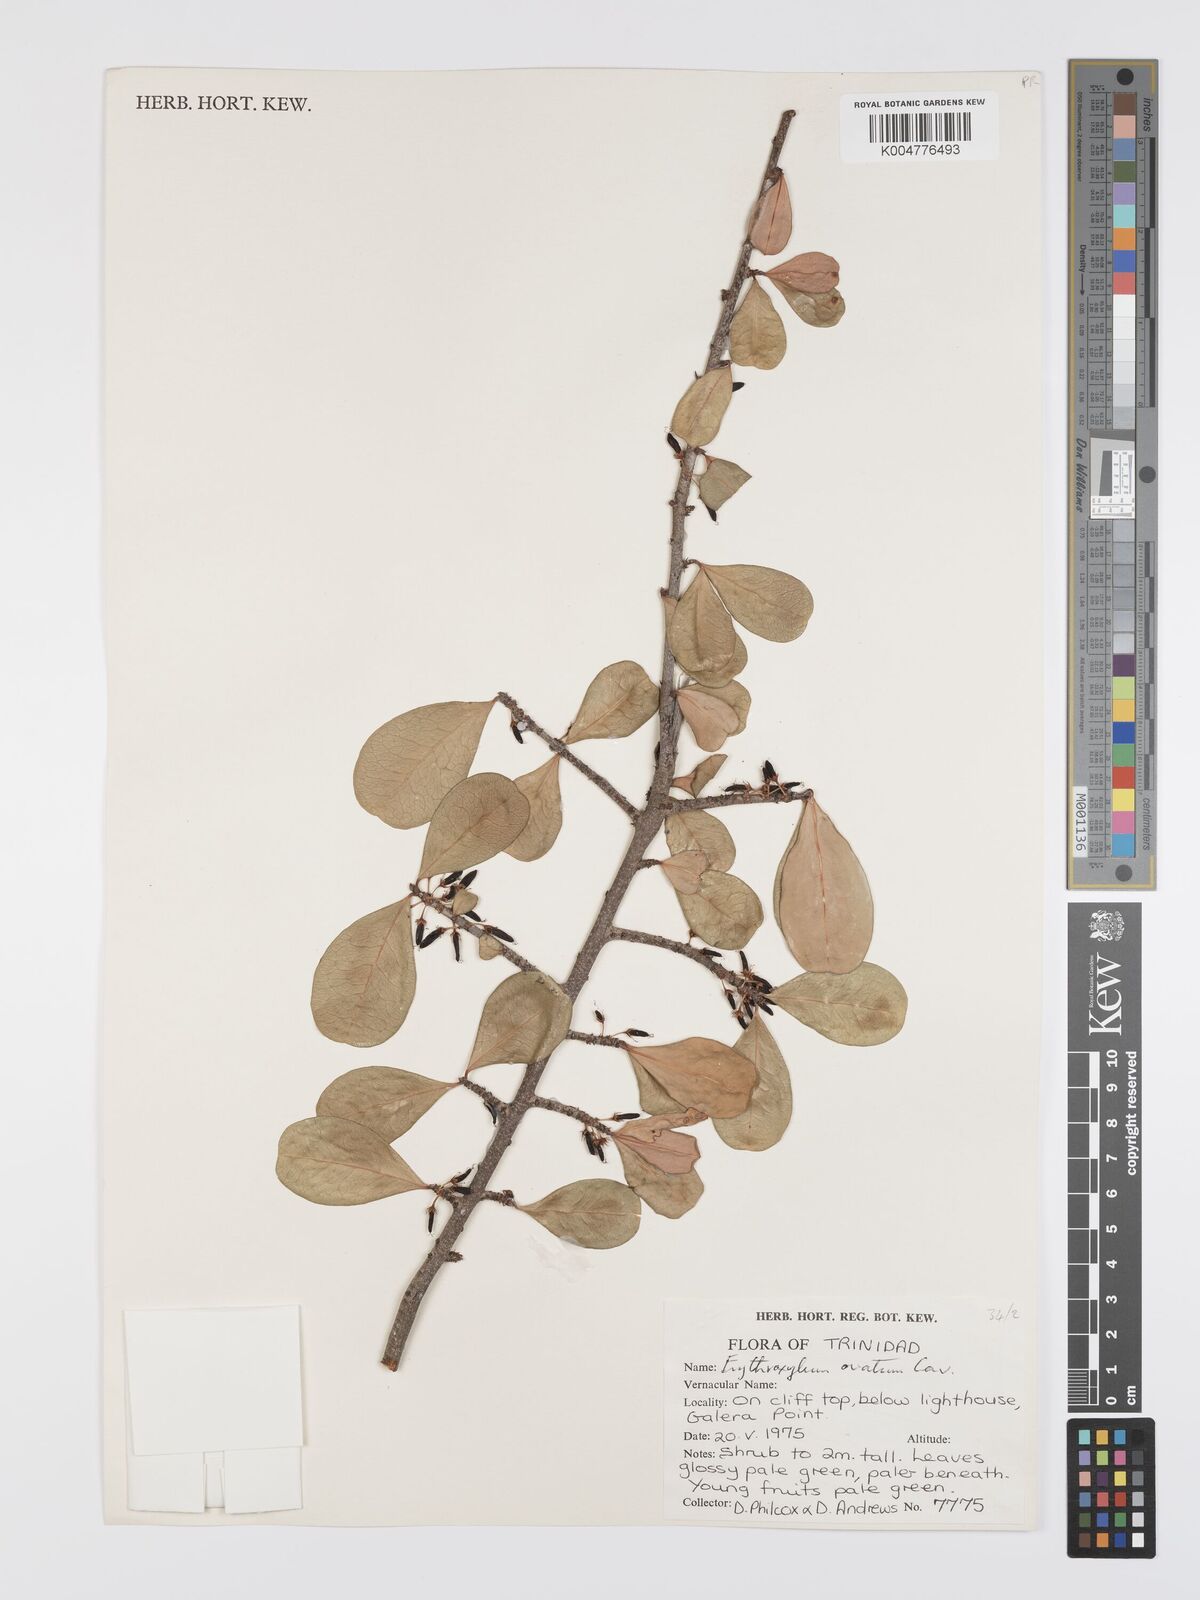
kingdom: Plantae
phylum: Tracheophyta
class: Magnoliopsida
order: Malpighiales
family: Erythroxylaceae
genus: Erythroxylum
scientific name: Erythroxylum havanense
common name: Bracelet
